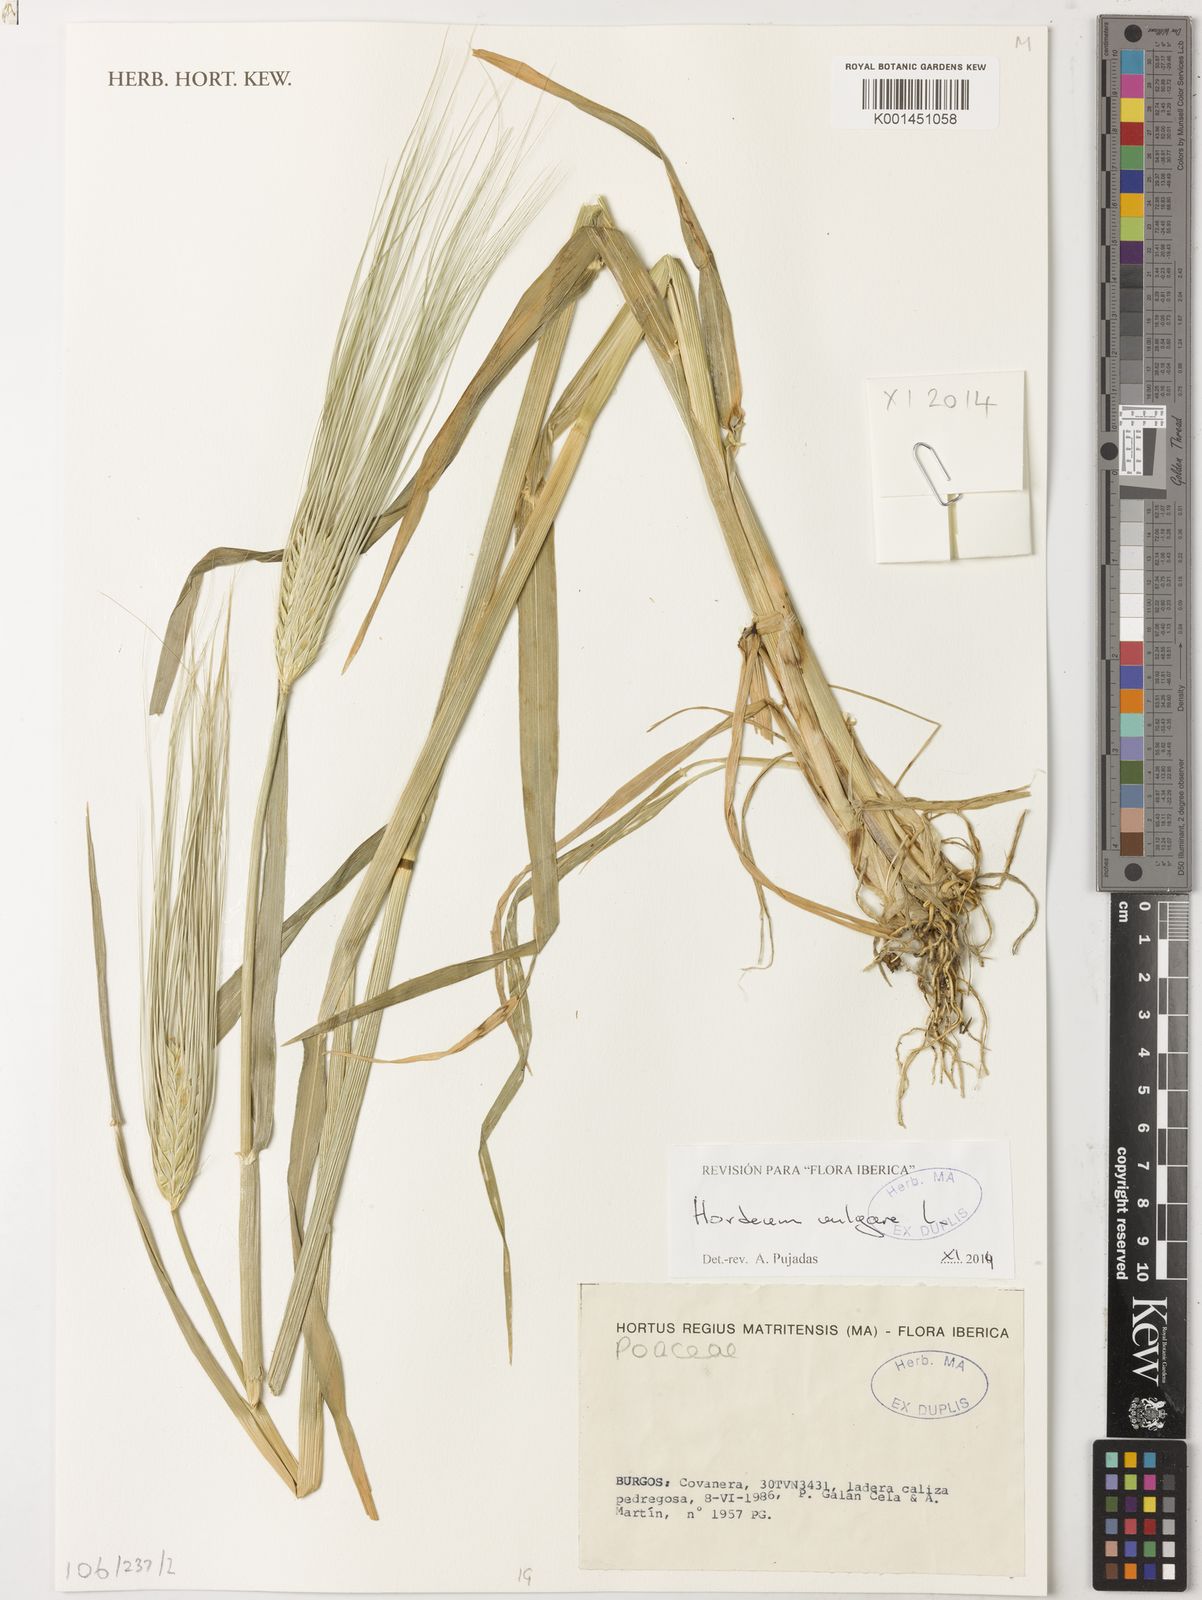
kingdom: Plantae
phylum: Tracheophyta
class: Liliopsida
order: Poales
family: Poaceae
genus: Hordeum
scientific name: Hordeum vulgare
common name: Common barley
